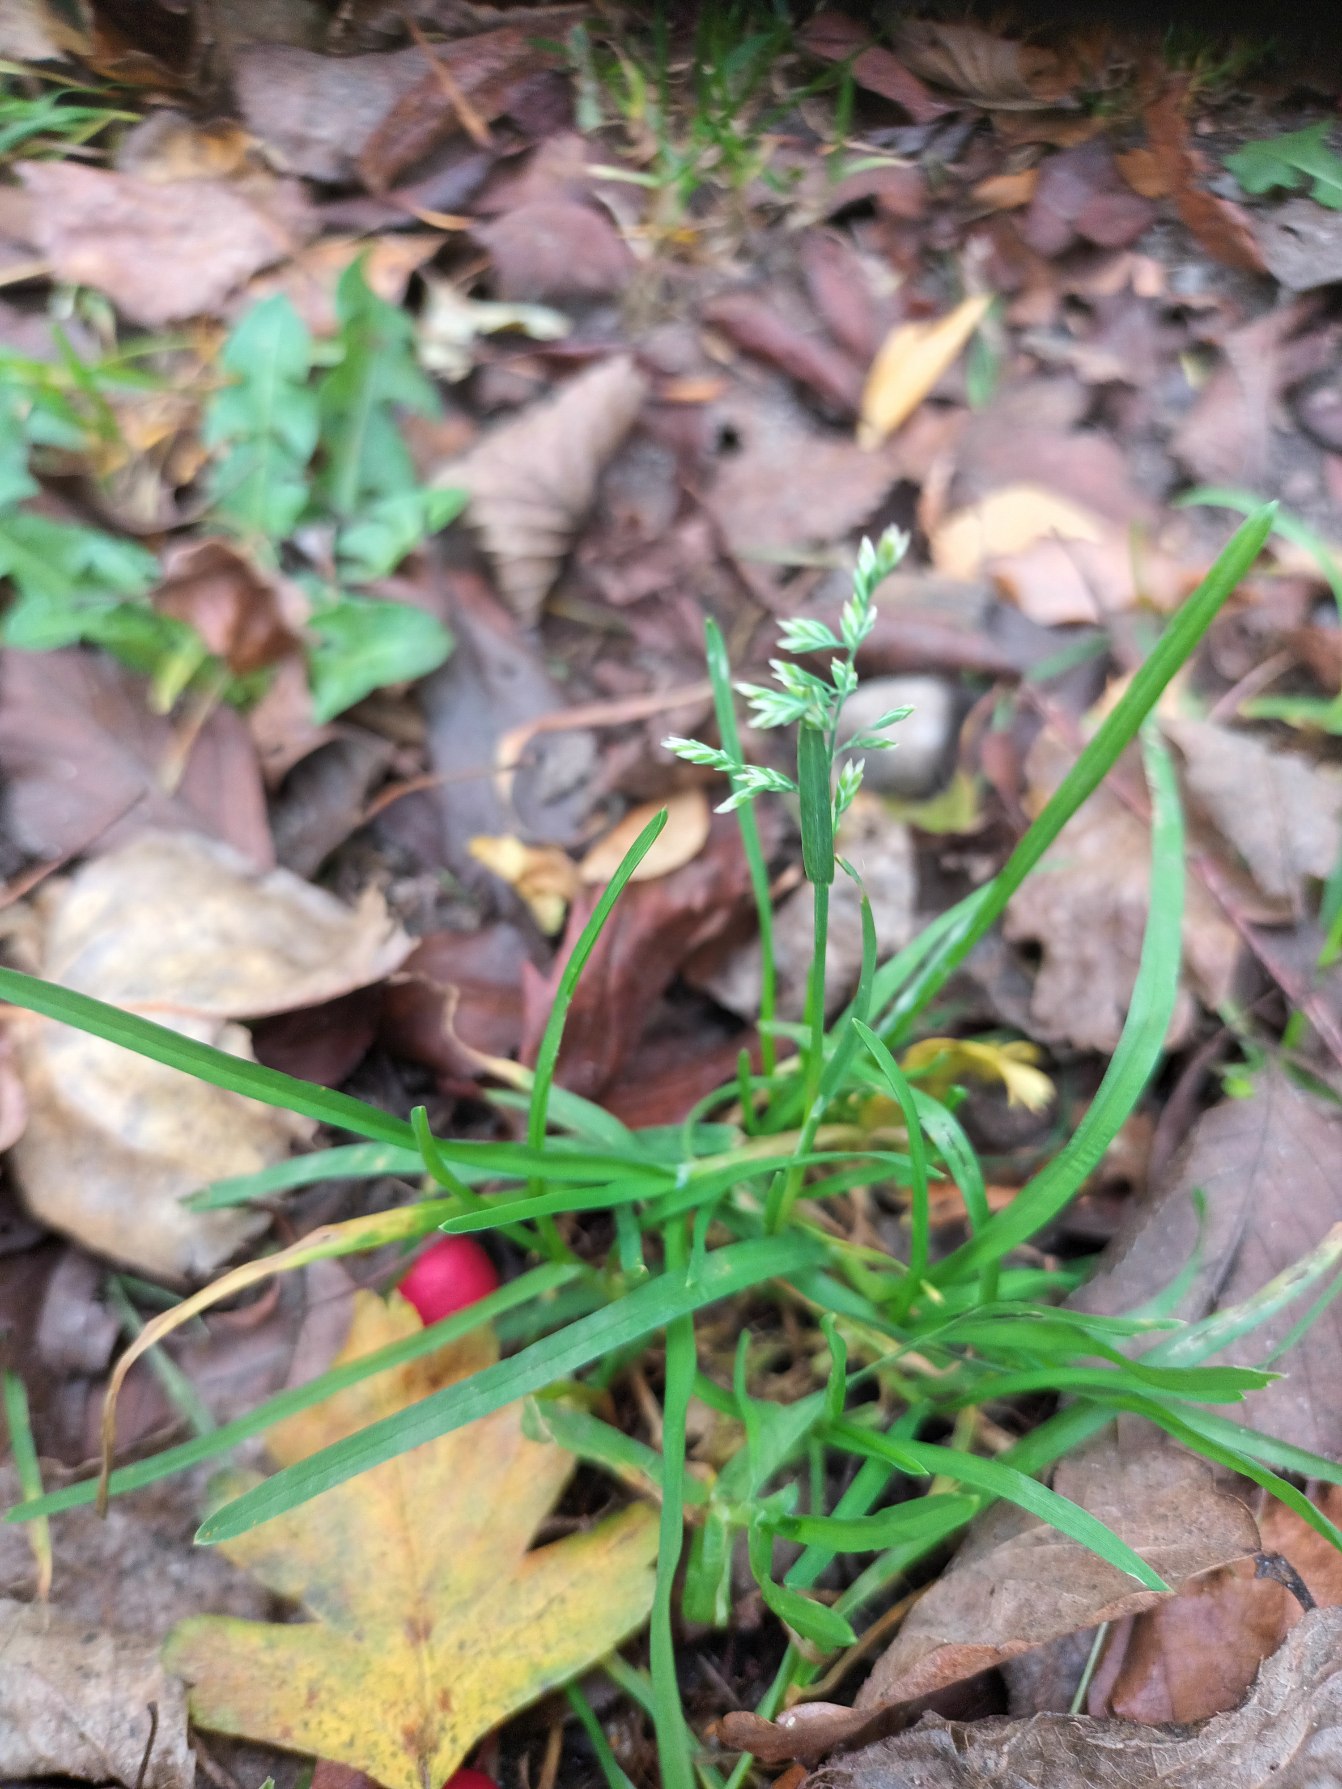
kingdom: Plantae
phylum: Tracheophyta
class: Liliopsida
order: Poales
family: Poaceae
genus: Poa
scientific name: Poa annua
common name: Enårig rapgræs
